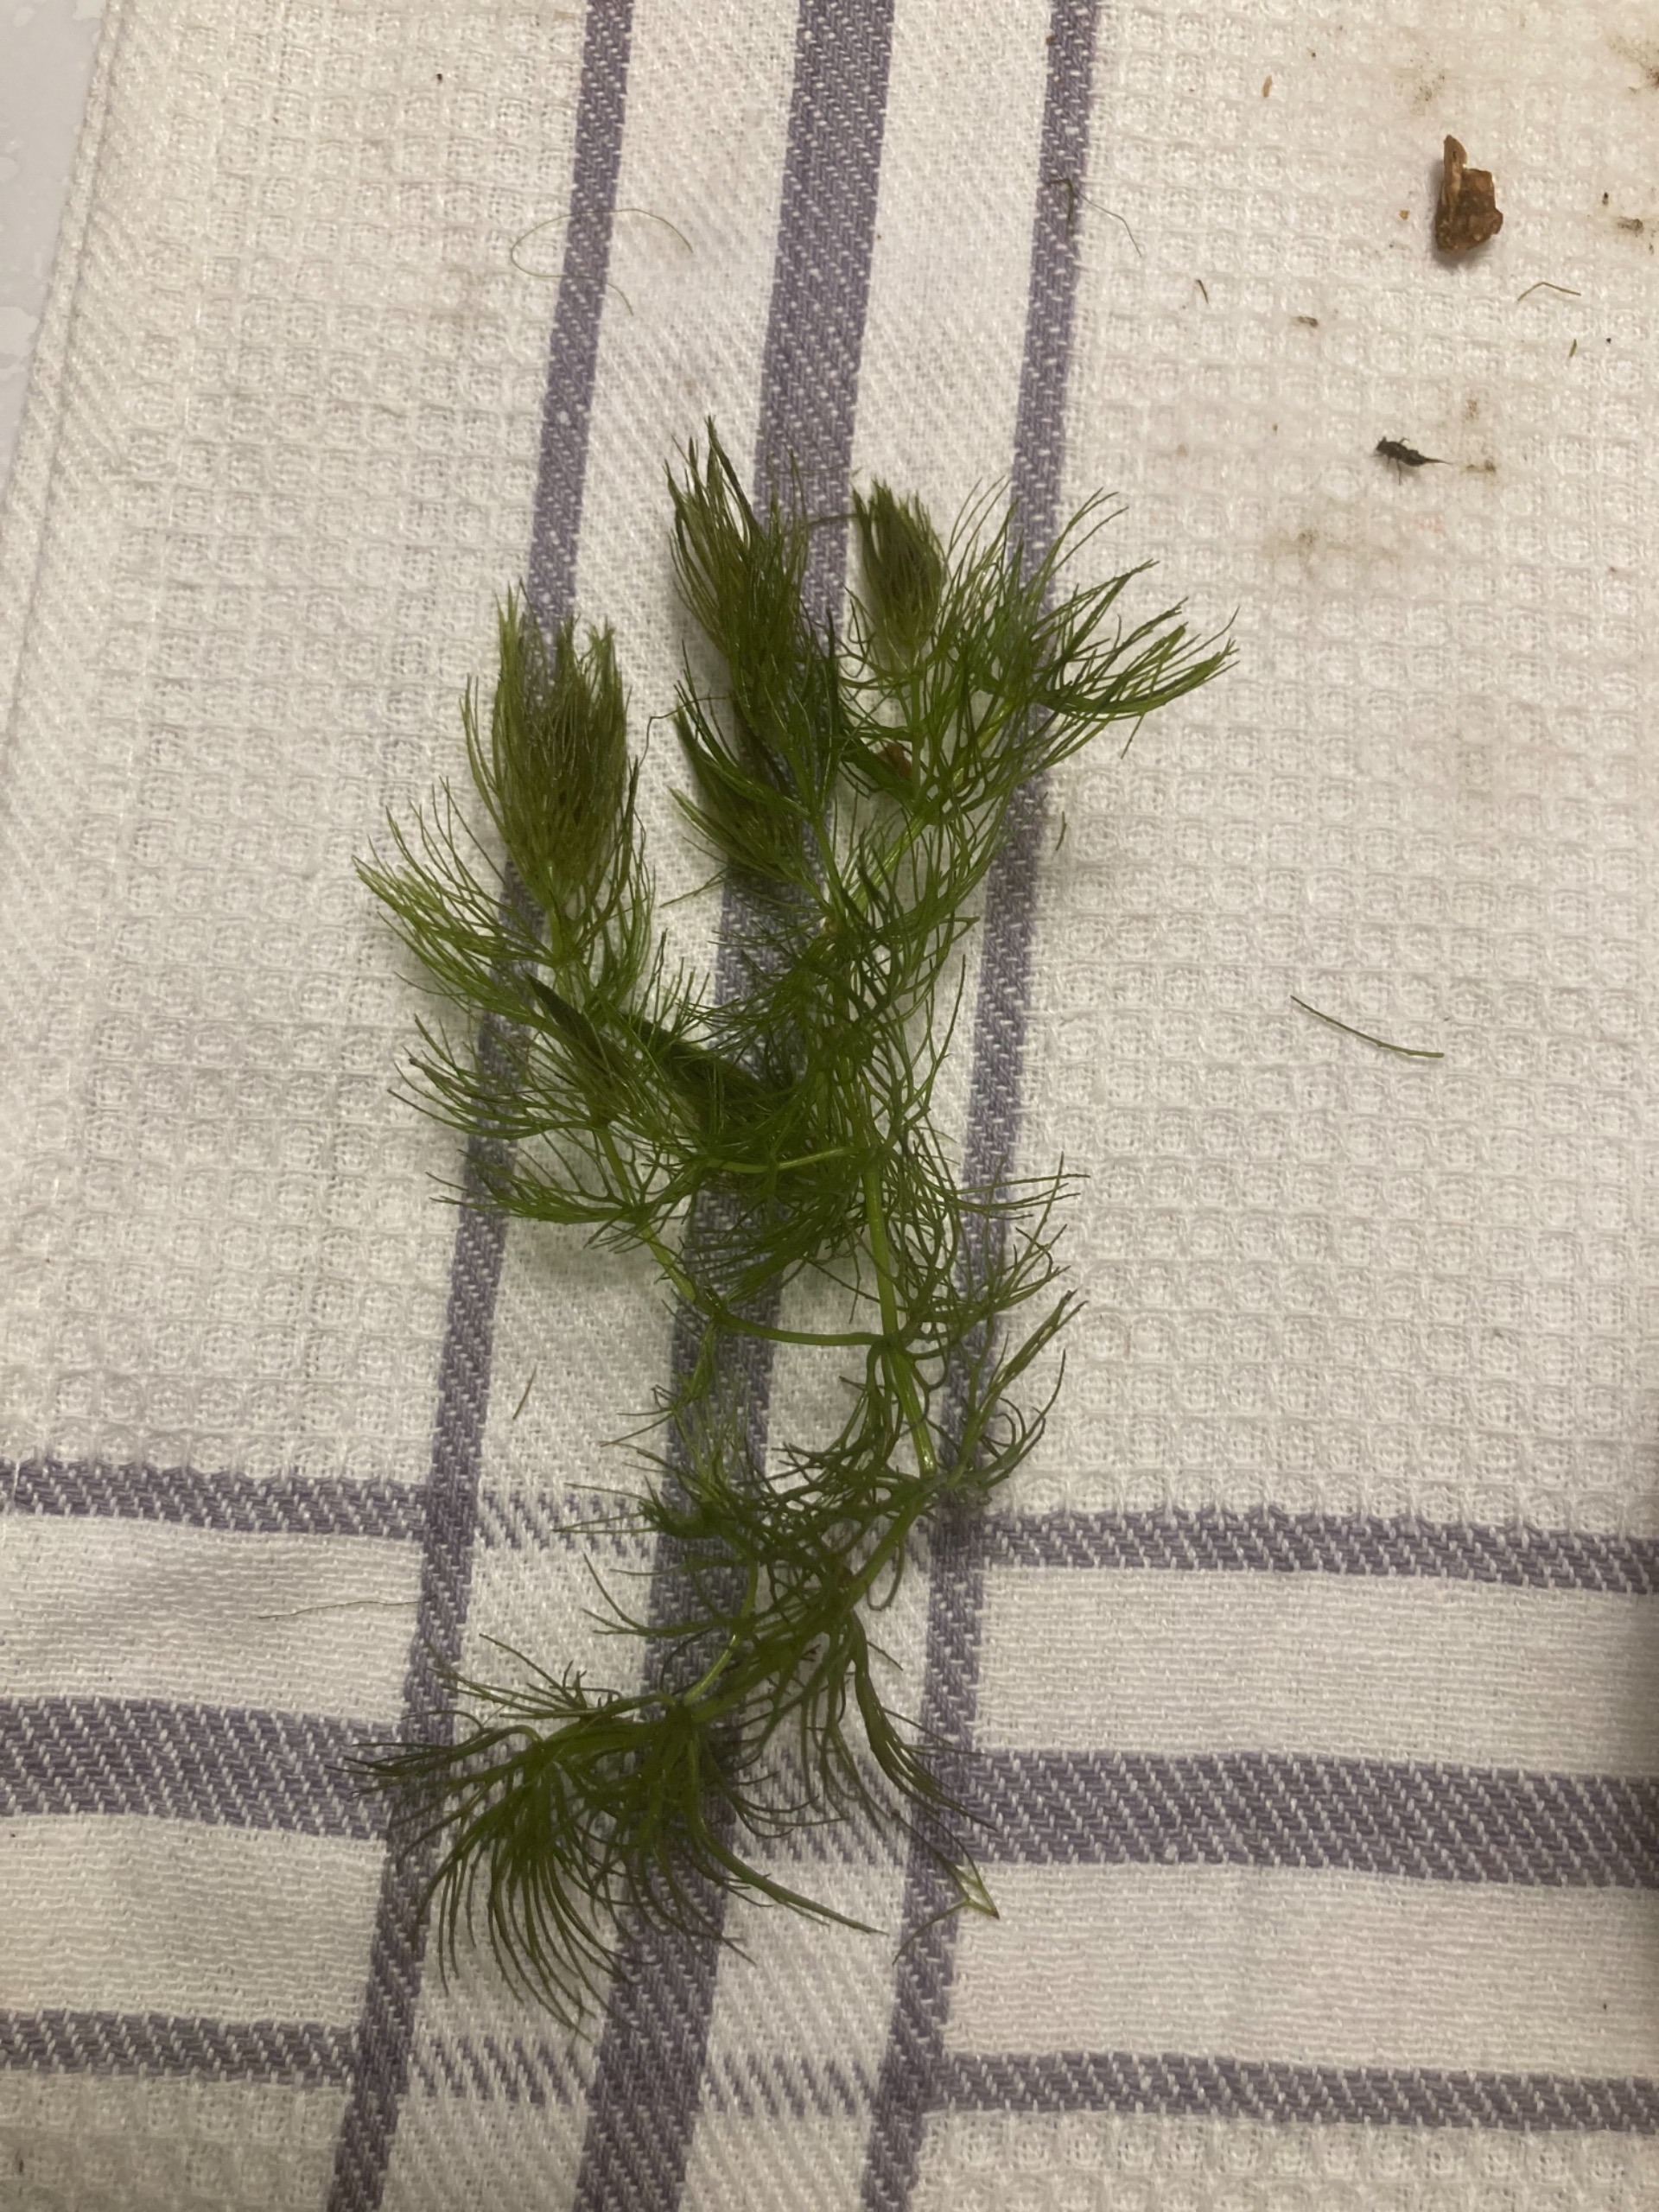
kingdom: Plantae
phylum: Tracheophyta
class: Magnoliopsida
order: Ceratophyllales
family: Ceratophyllaceae
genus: Ceratophyllum
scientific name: Ceratophyllum submersum
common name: Tornløs hornblad
